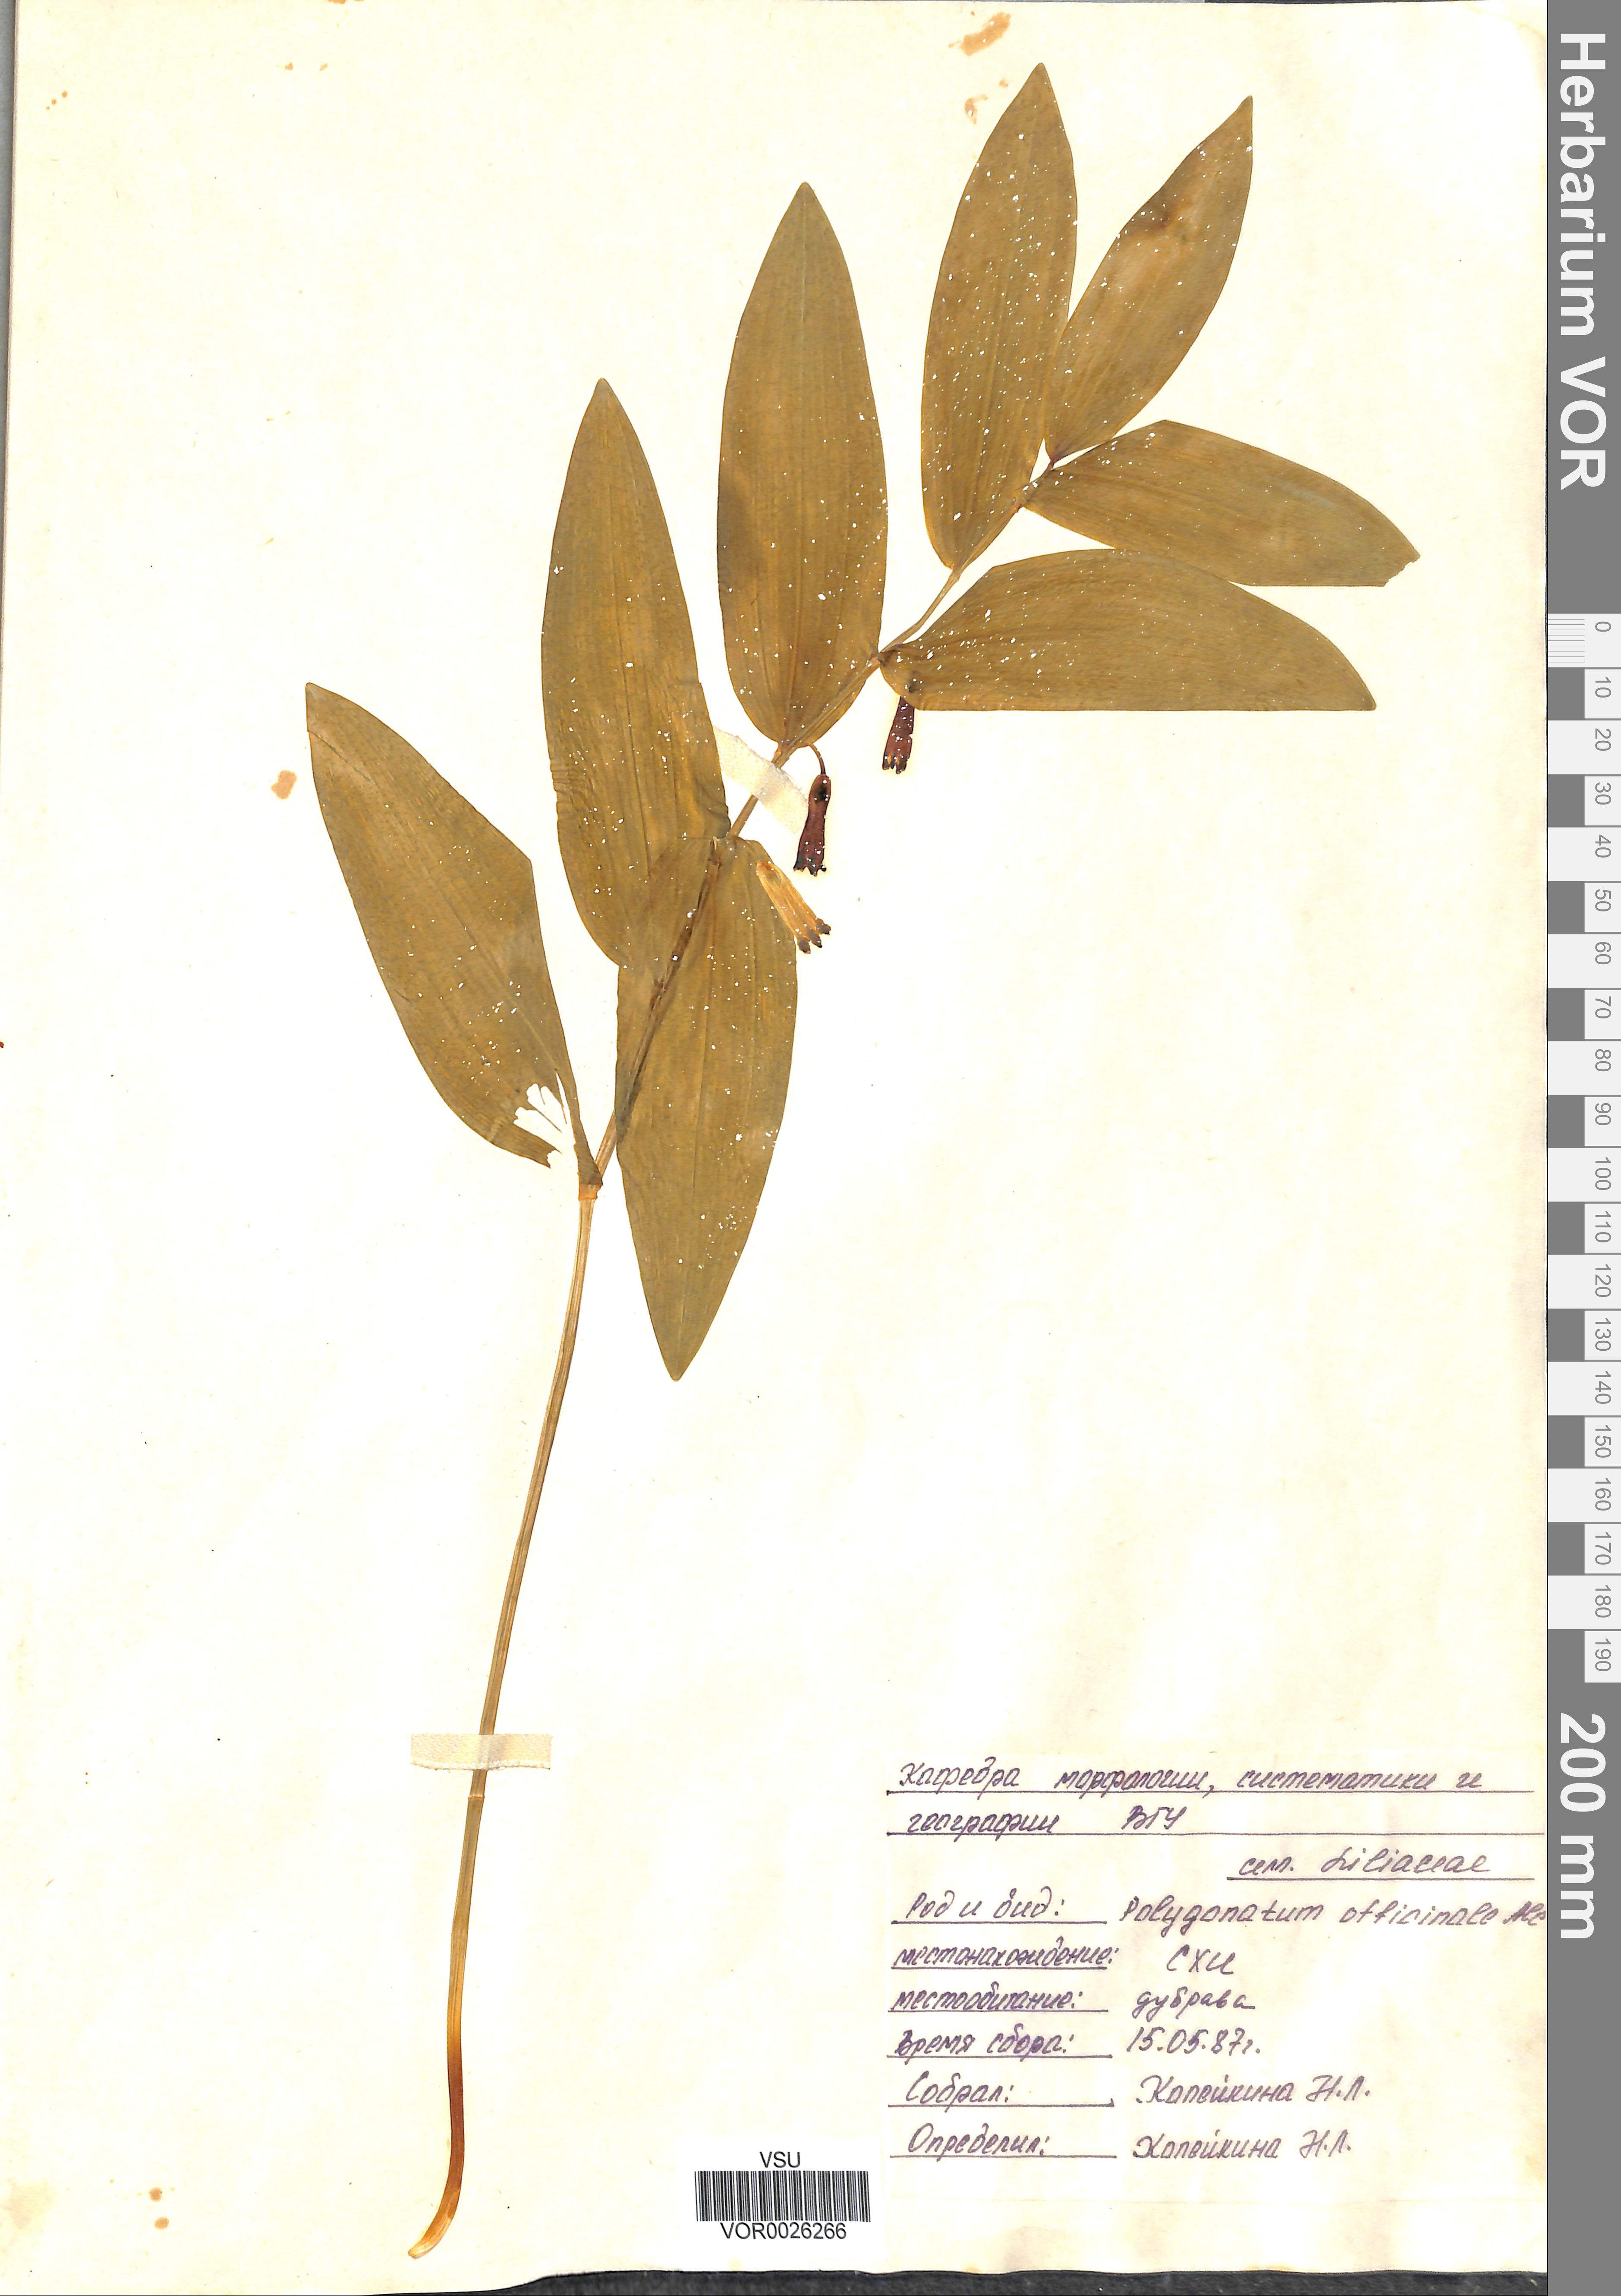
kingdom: Plantae
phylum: Tracheophyta
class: Liliopsida
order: Asparagales
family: Asparagaceae
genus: Polygonatum
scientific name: Polygonatum odoratum
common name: Angular solomon's-seal
